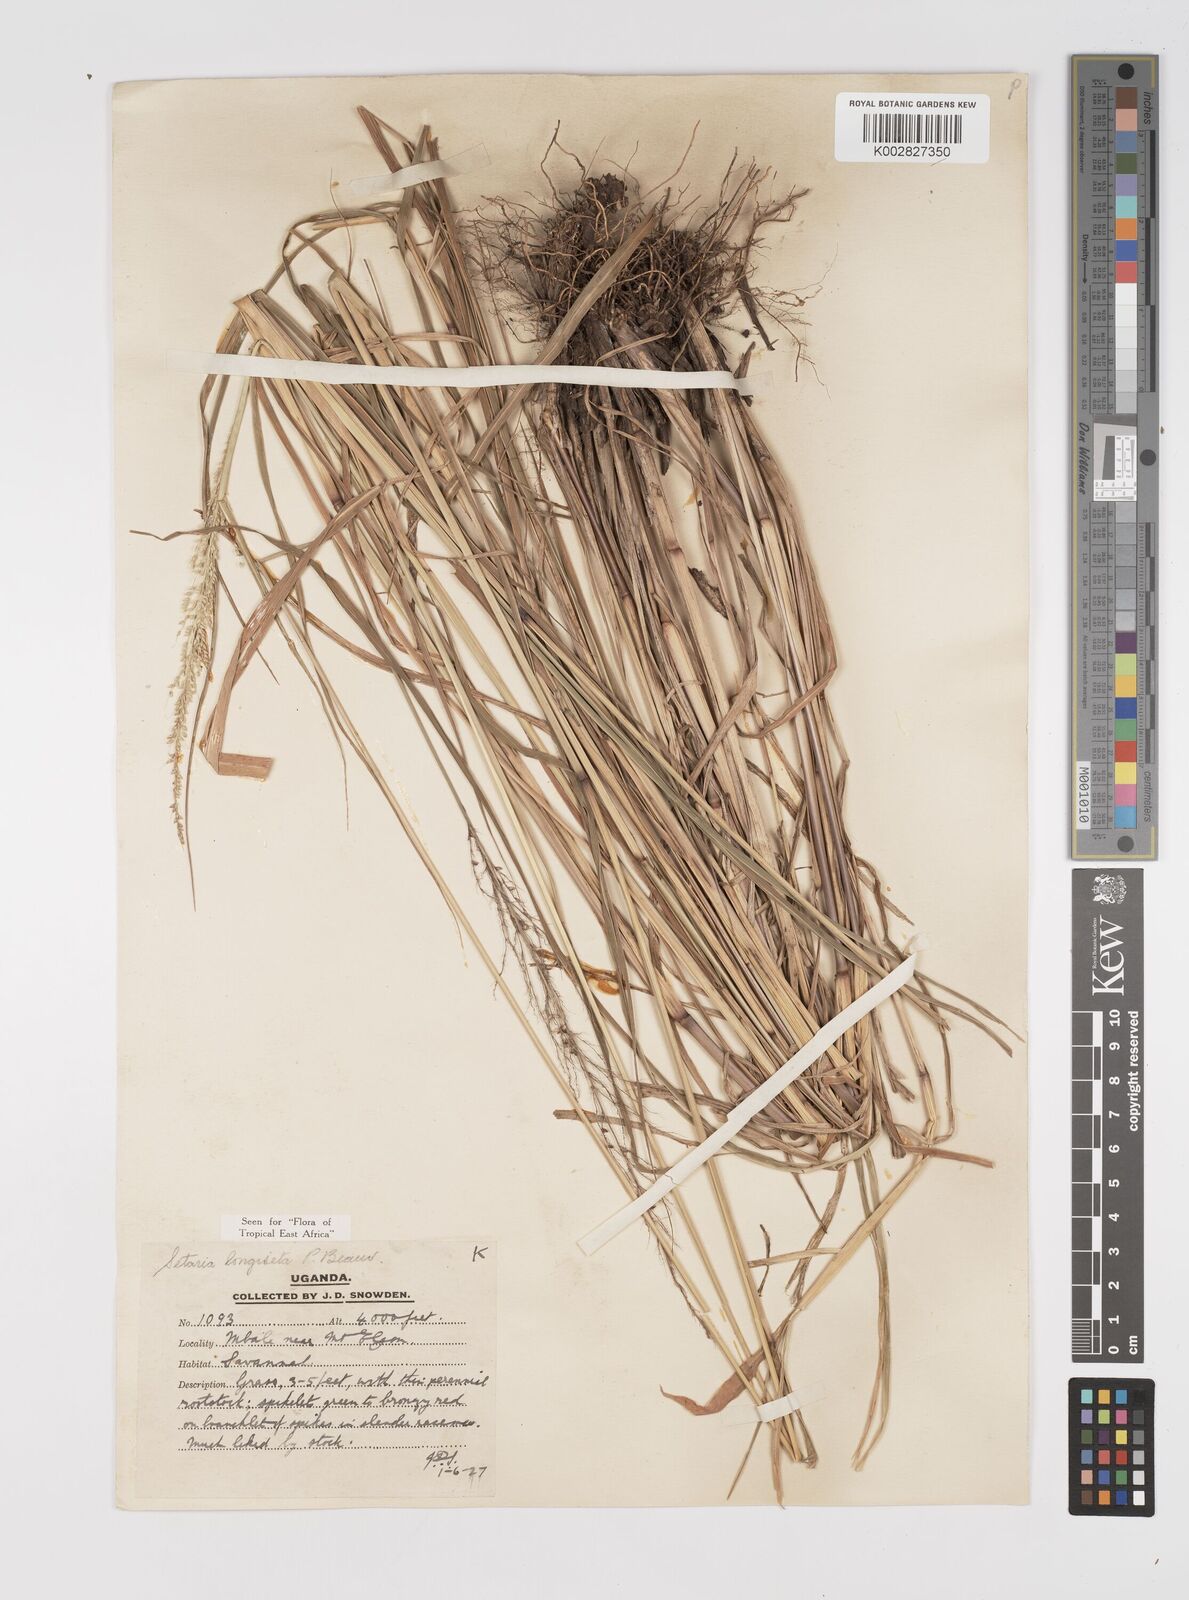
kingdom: Plantae
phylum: Tracheophyta
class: Liliopsida
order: Poales
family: Poaceae
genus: Setaria
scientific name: Setaria longiseta
